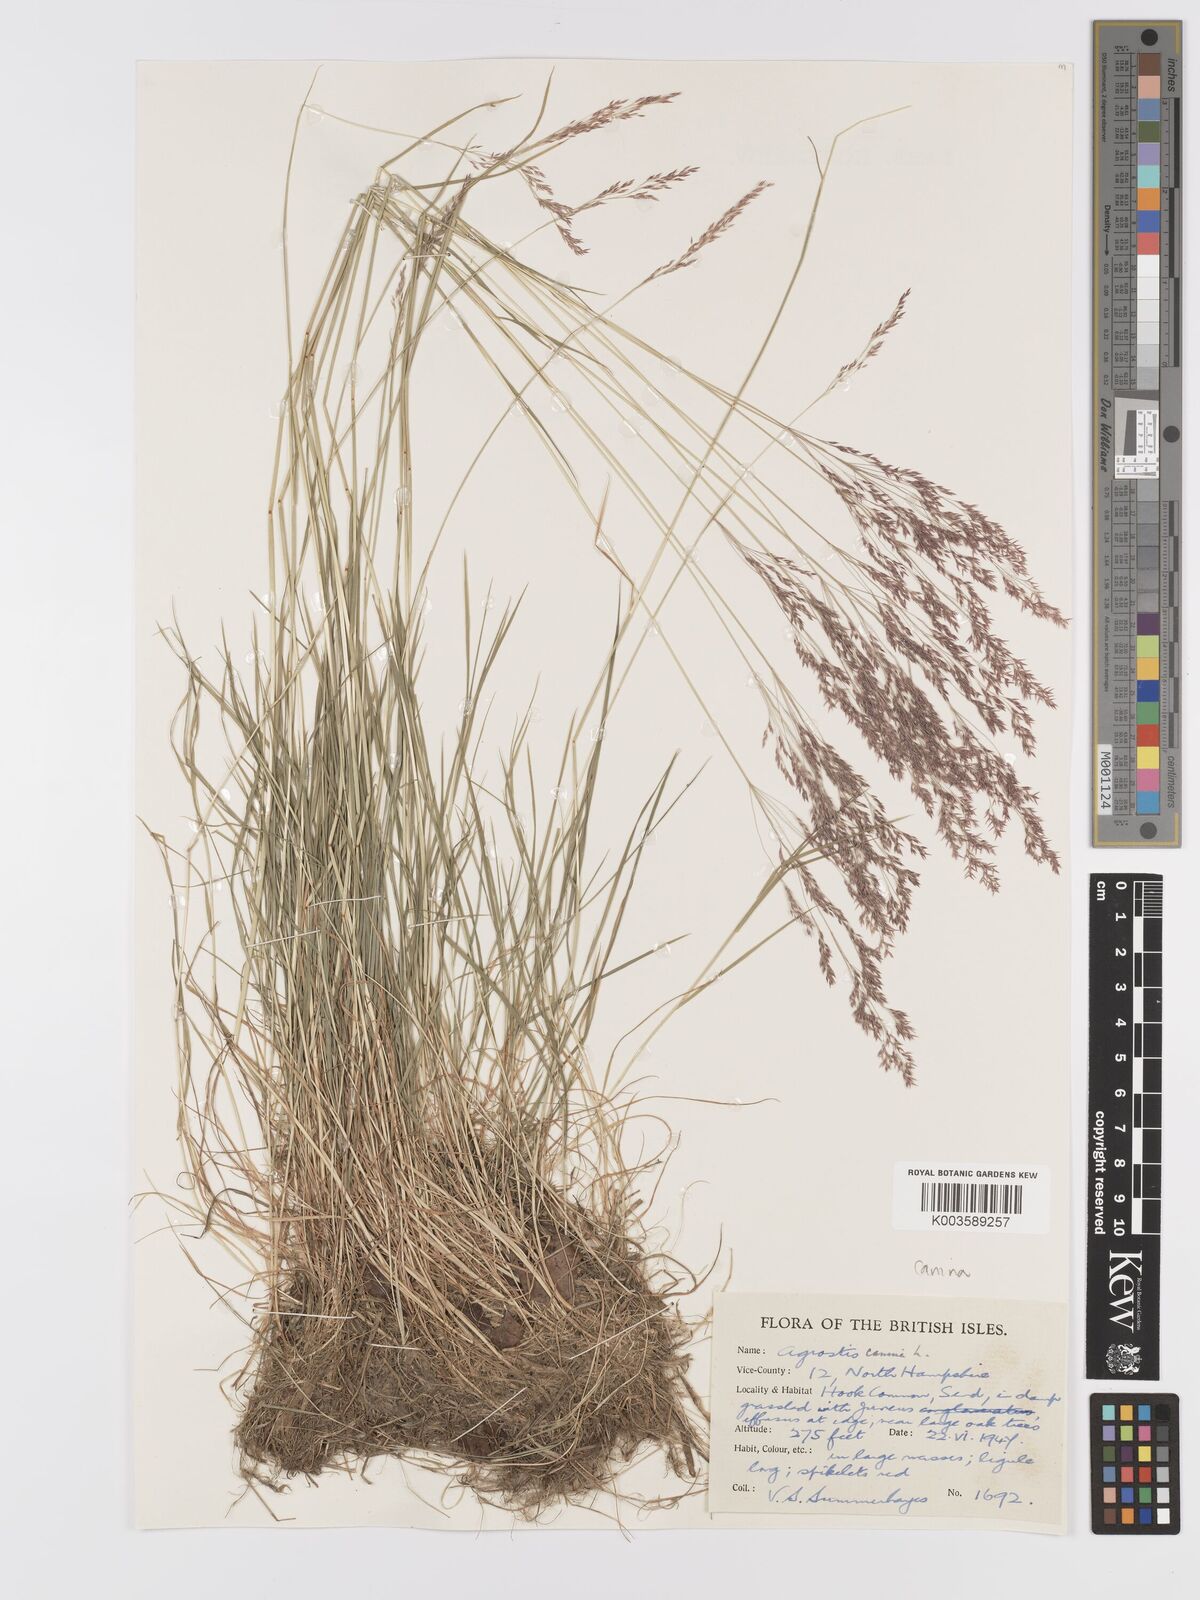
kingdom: Plantae
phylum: Tracheophyta
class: Liliopsida
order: Poales
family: Poaceae
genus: Agrostis
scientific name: Agrostis canina
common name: Velvet bent
